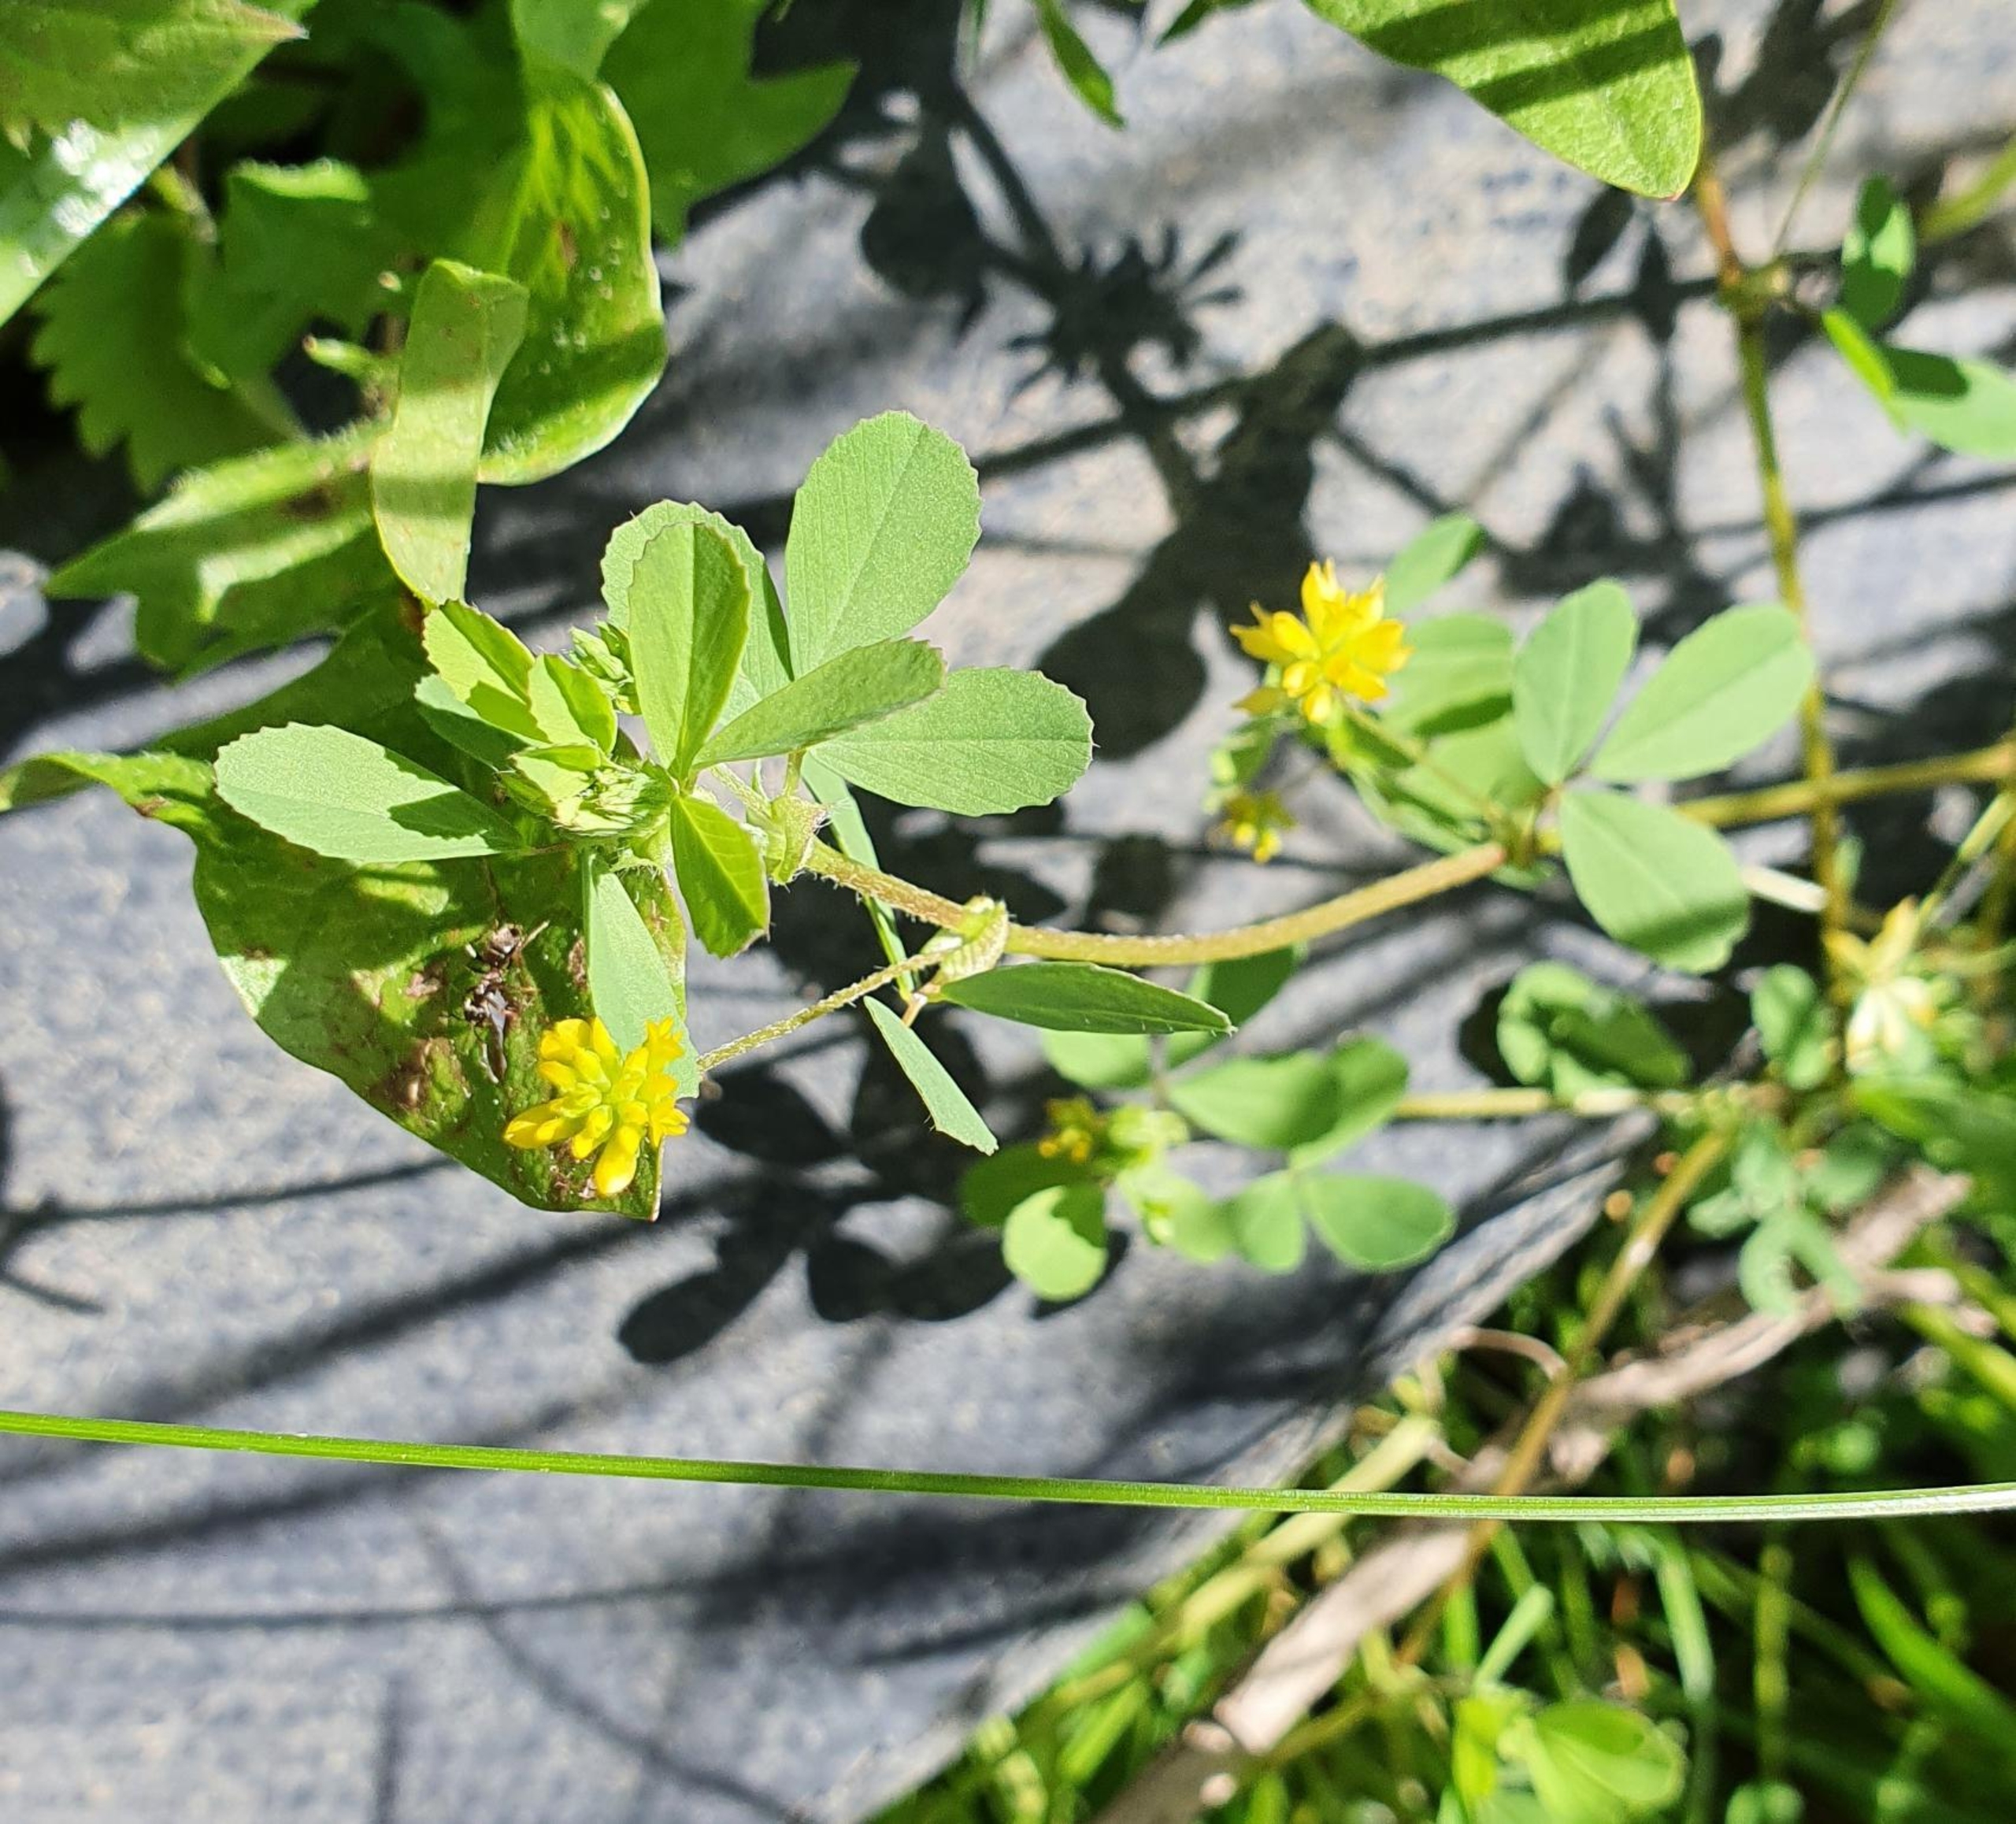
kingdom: Plantae
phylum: Tracheophyta
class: Magnoliopsida
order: Fabales
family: Fabaceae
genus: Trifolium
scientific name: Trifolium dubium
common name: Fin kløver
